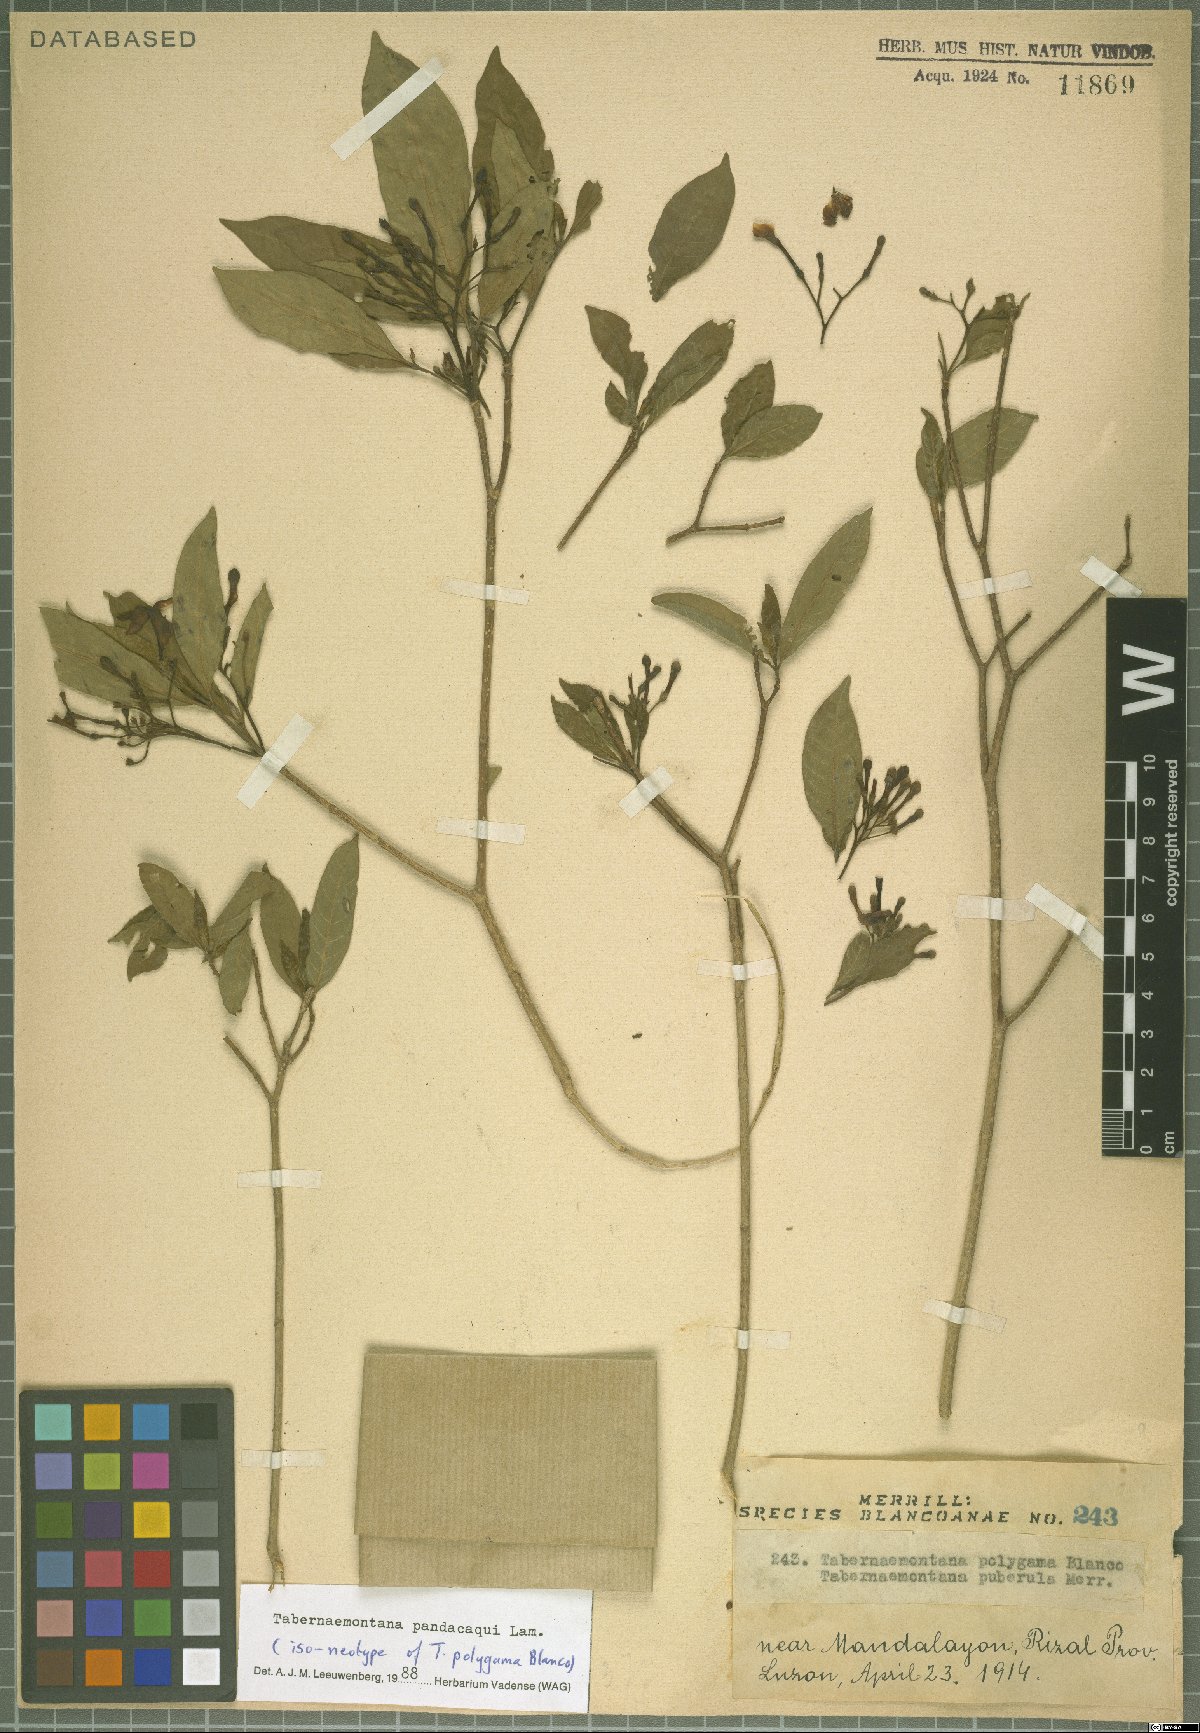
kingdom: Plantae
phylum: Tracheophyta
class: Magnoliopsida
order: Gentianales
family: Apocynaceae
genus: Tabernaemontana
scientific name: Tabernaemontana pandacaqui
